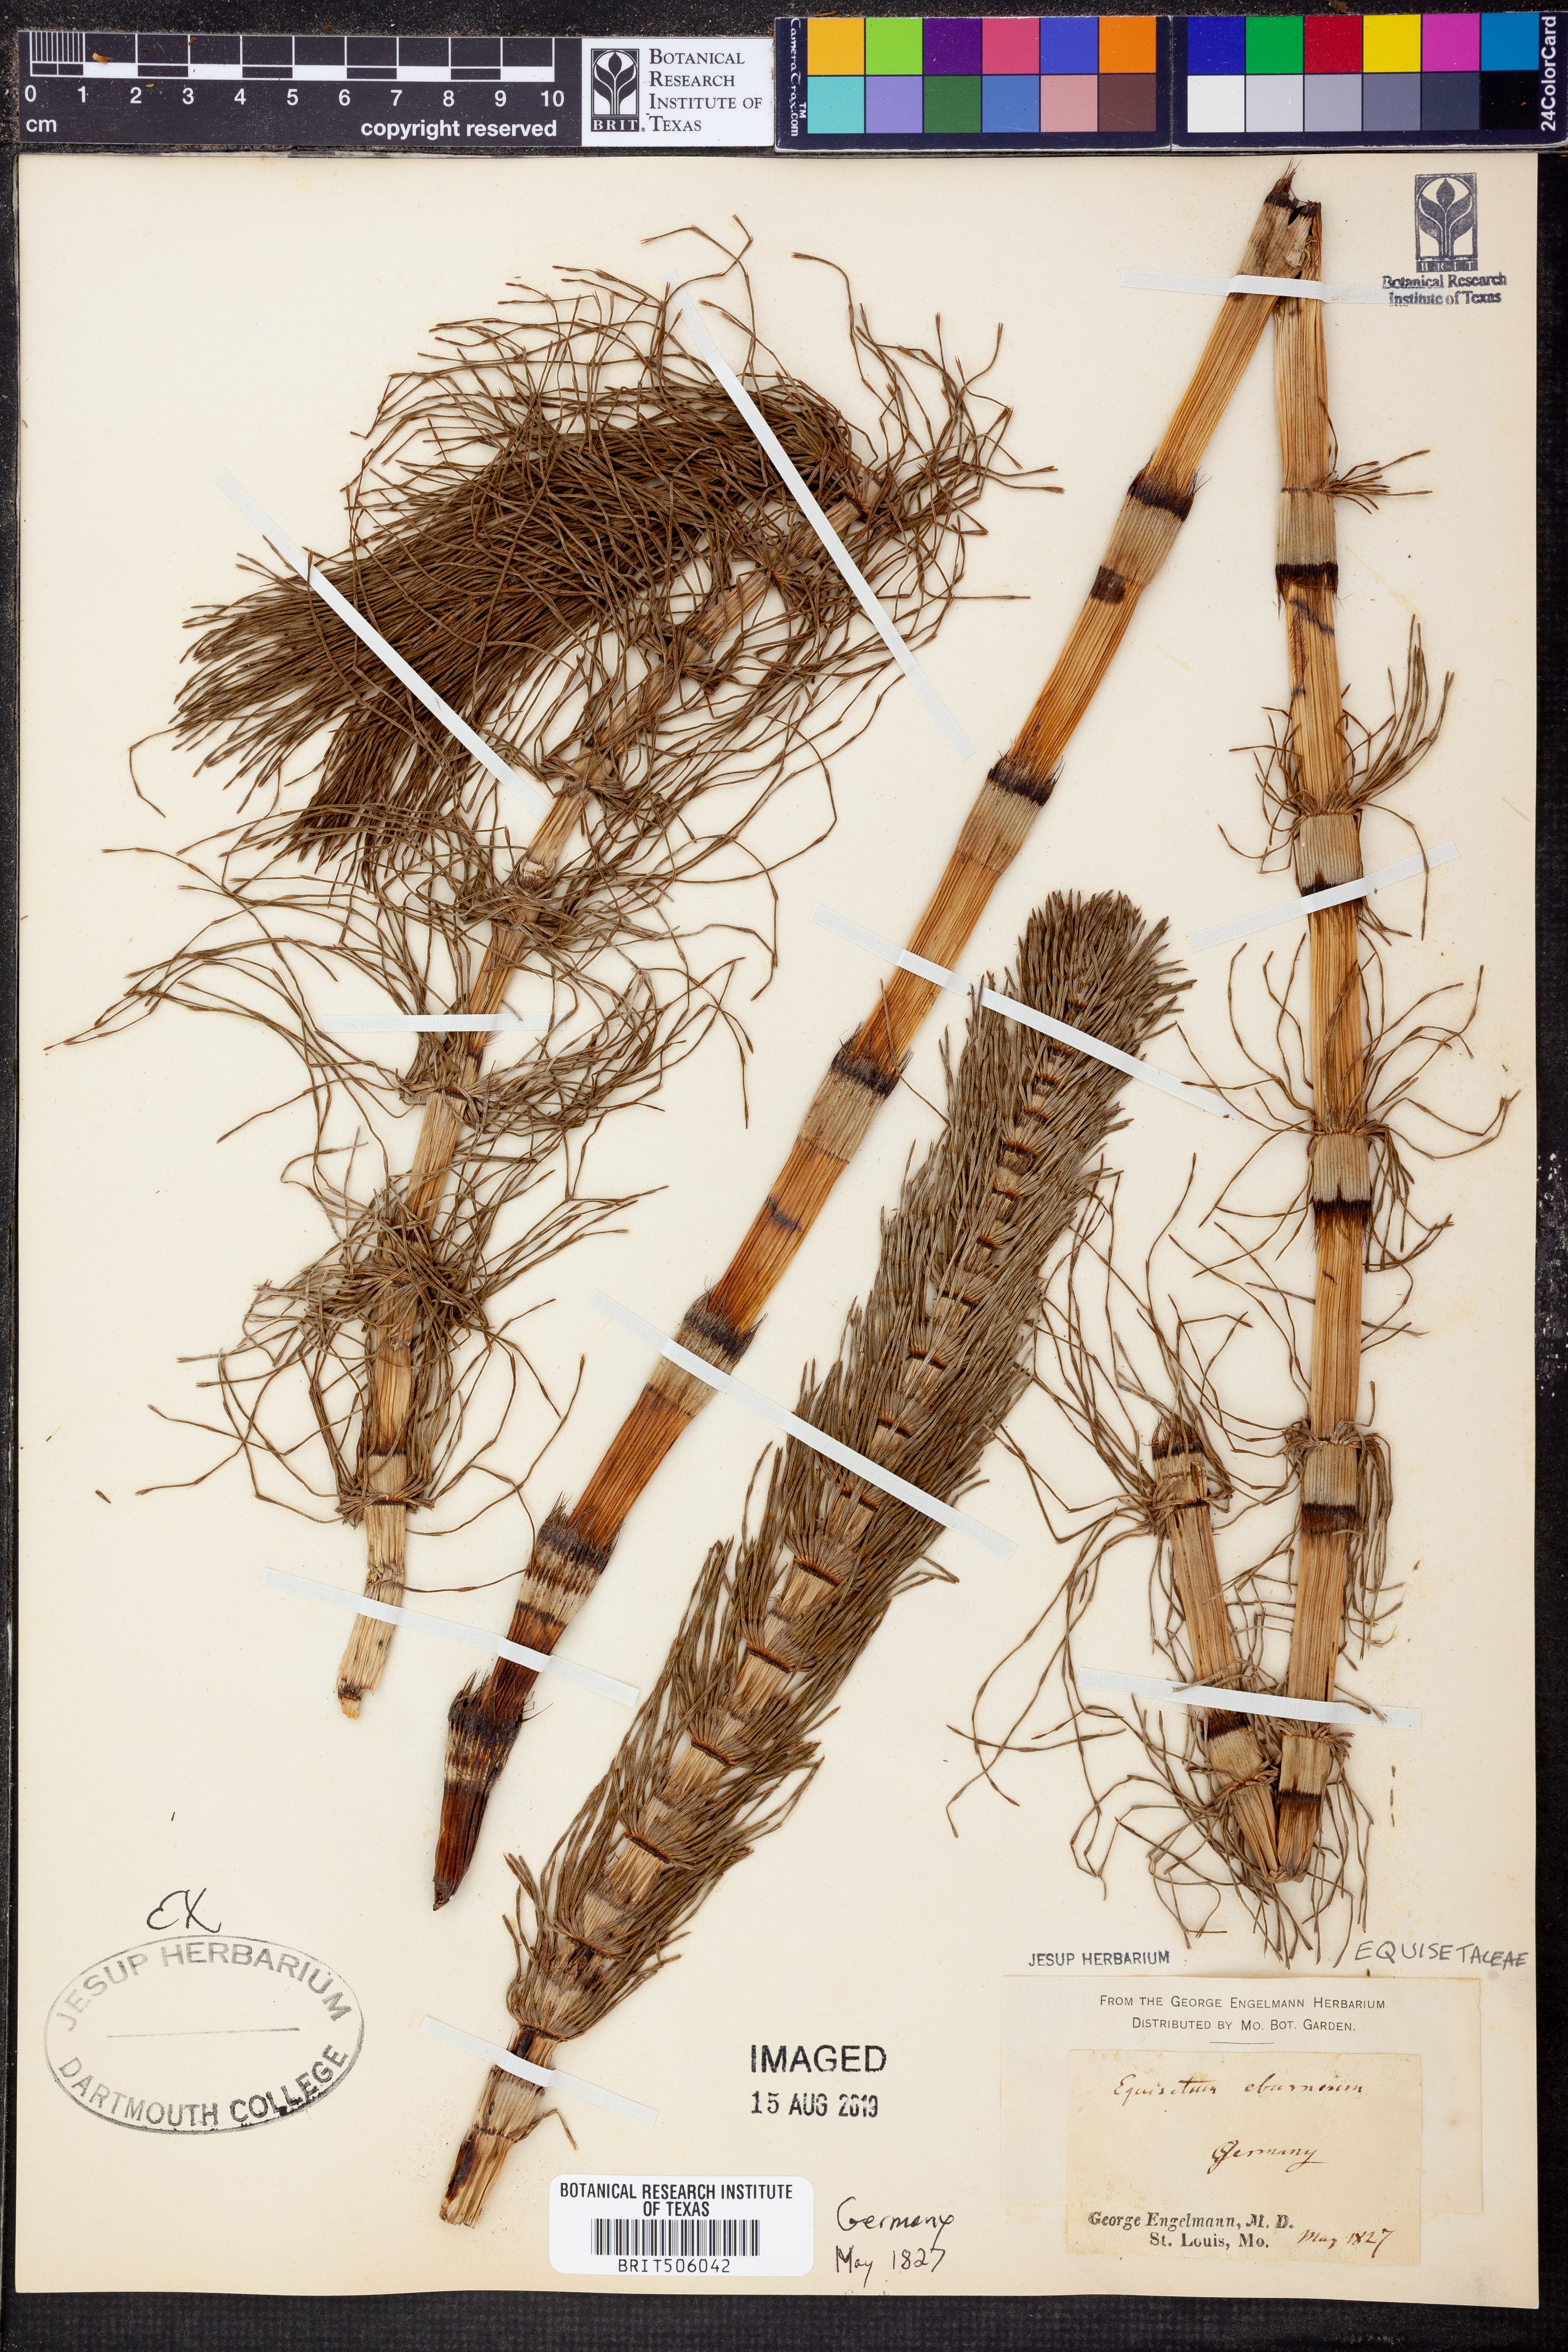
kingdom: Plantae
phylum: Tracheophyta
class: Polypodiopsida
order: Equisetales
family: Equisetaceae
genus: Equisetum
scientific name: Equisetum telmateia
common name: Great horsetail
